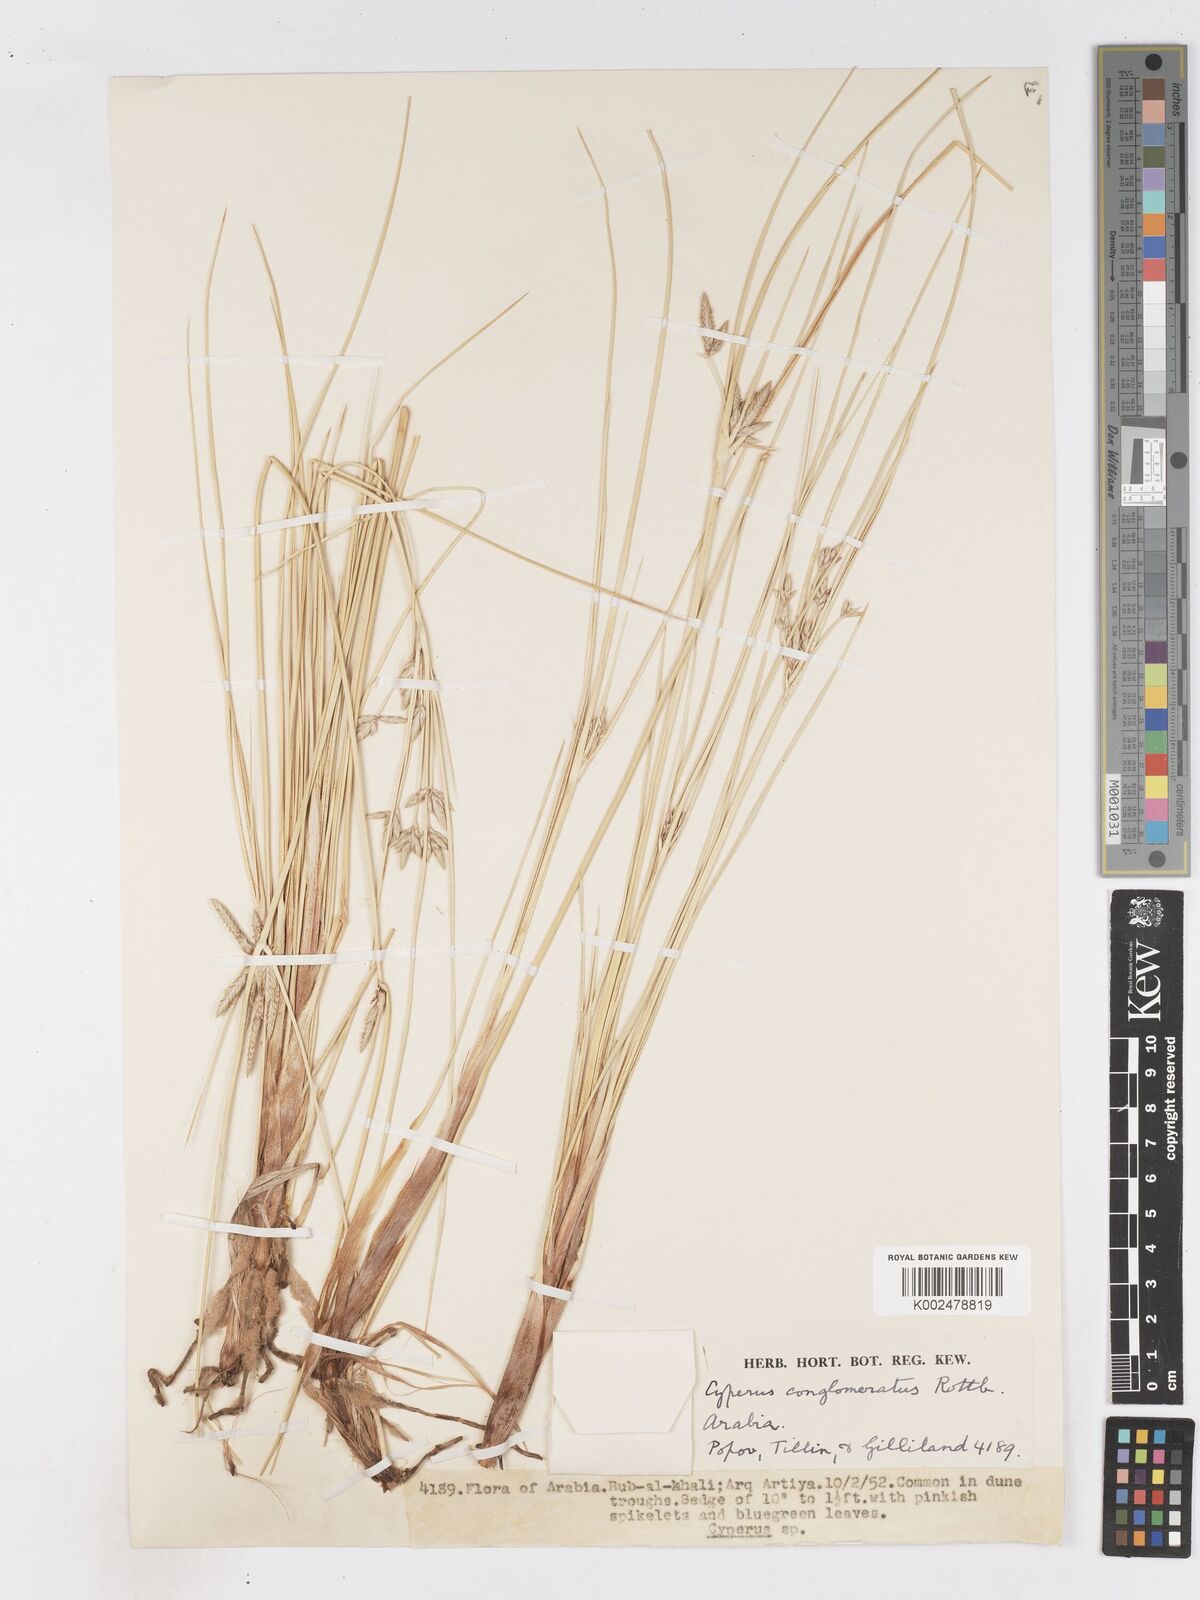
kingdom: Plantae
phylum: Tracheophyta
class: Liliopsida
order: Poales
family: Cyperaceae
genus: Cyperus
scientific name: Cyperus aucheri
